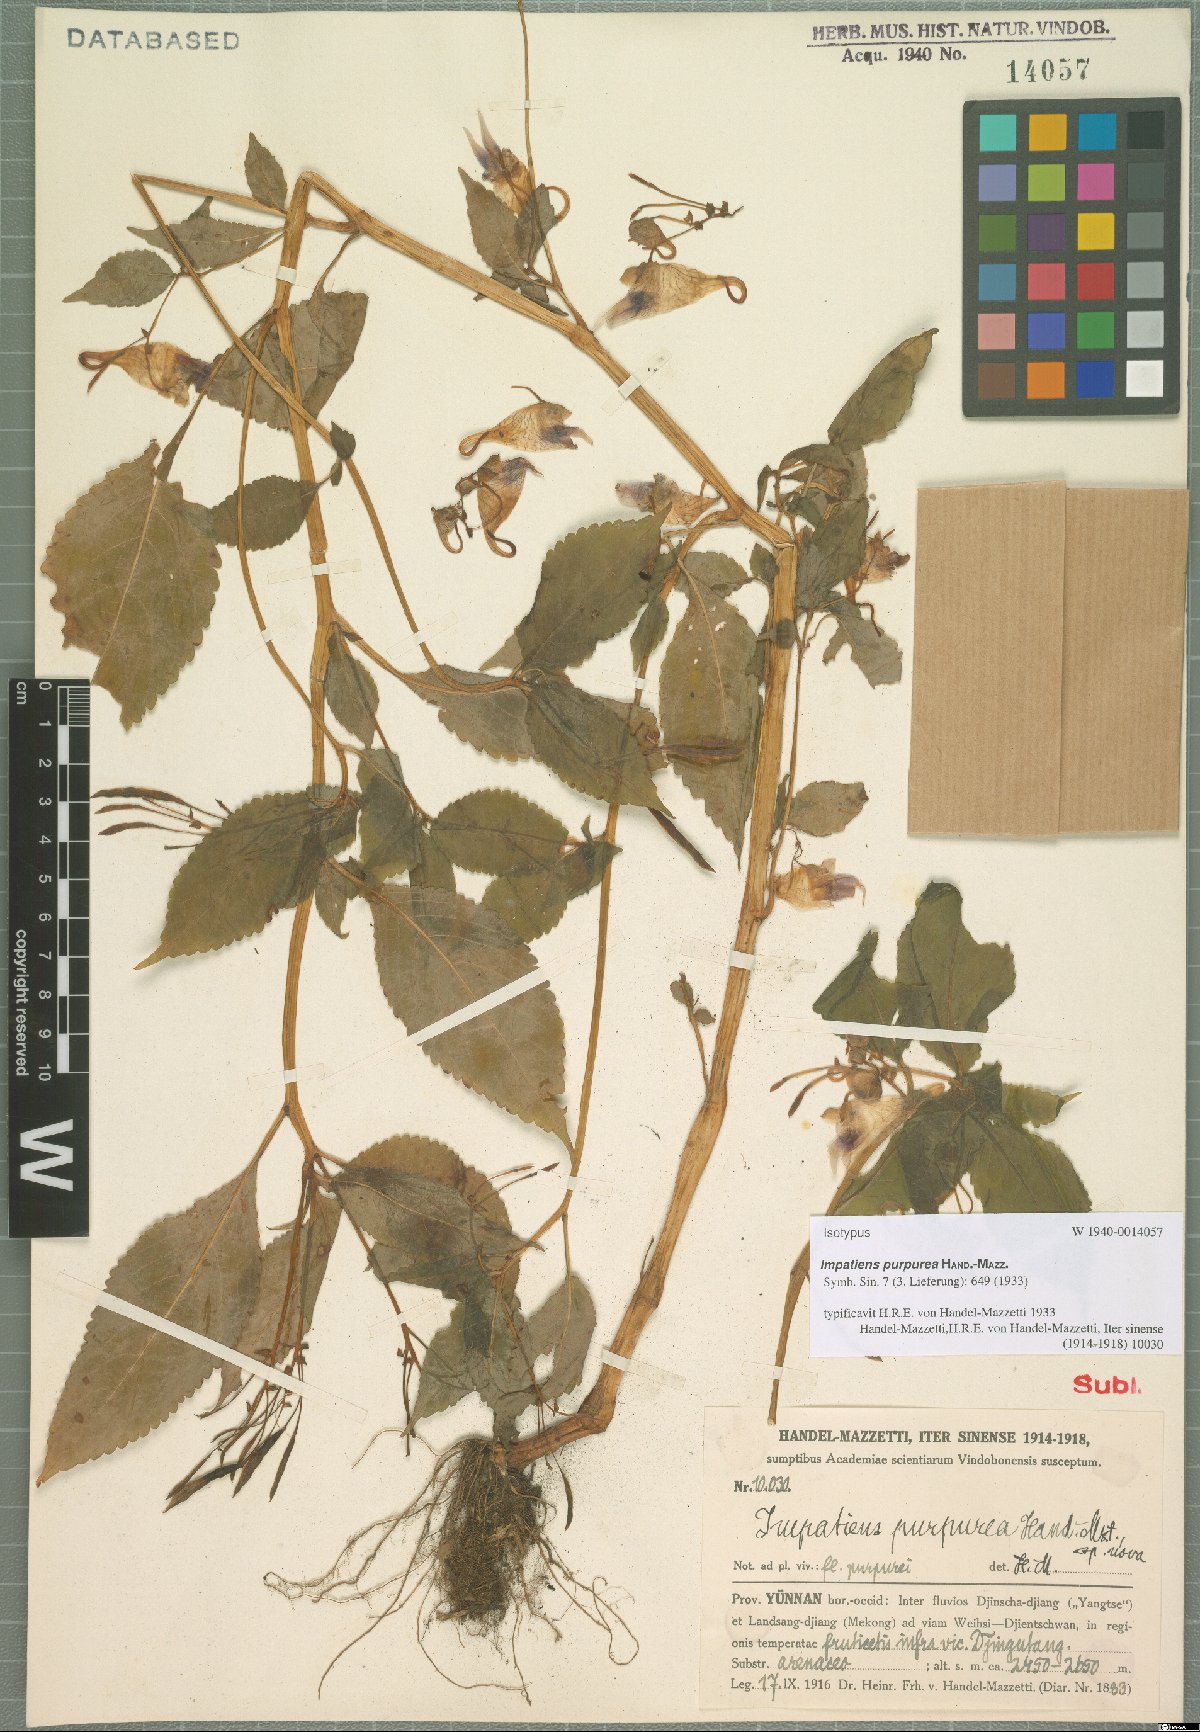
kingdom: Plantae
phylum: Tracheophyta
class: Magnoliopsida
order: Ericales
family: Balsaminaceae
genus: Impatiens
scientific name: Impatiens purpurea
